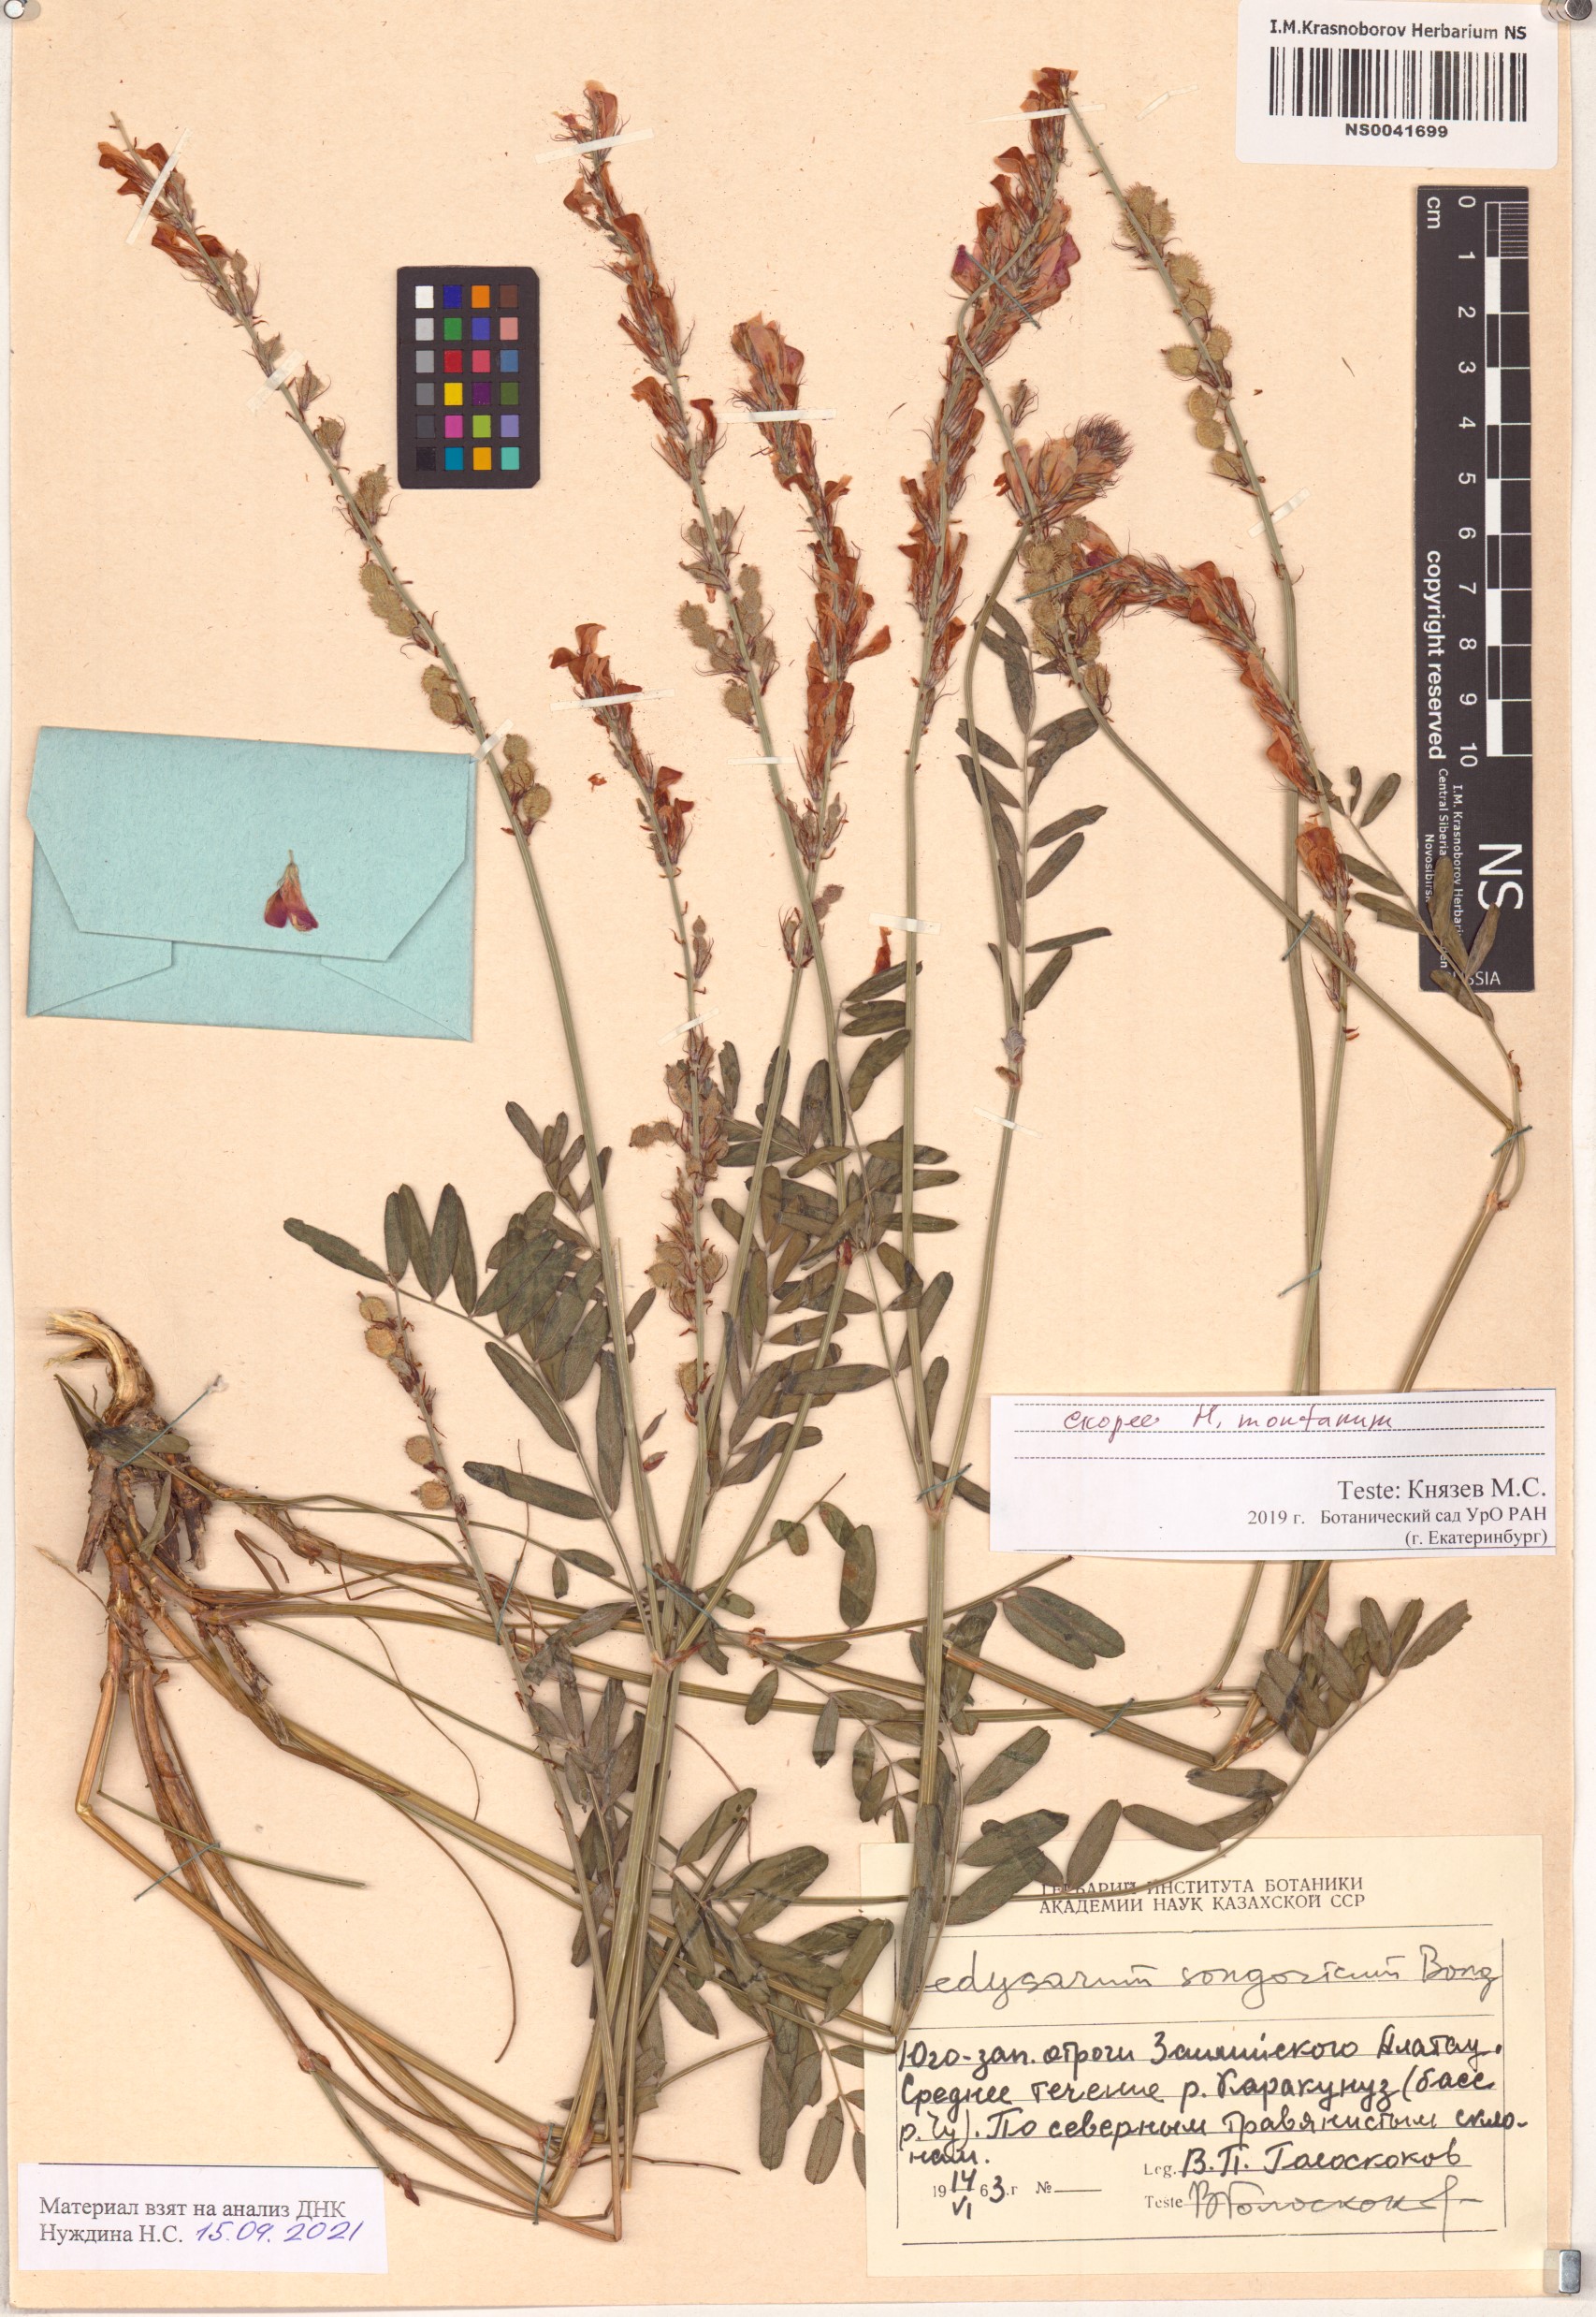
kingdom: Plantae
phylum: Tracheophyta
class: Magnoliopsida
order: Fabales
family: Fabaceae
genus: Hedysarum
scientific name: Hedysarum issykkulense
